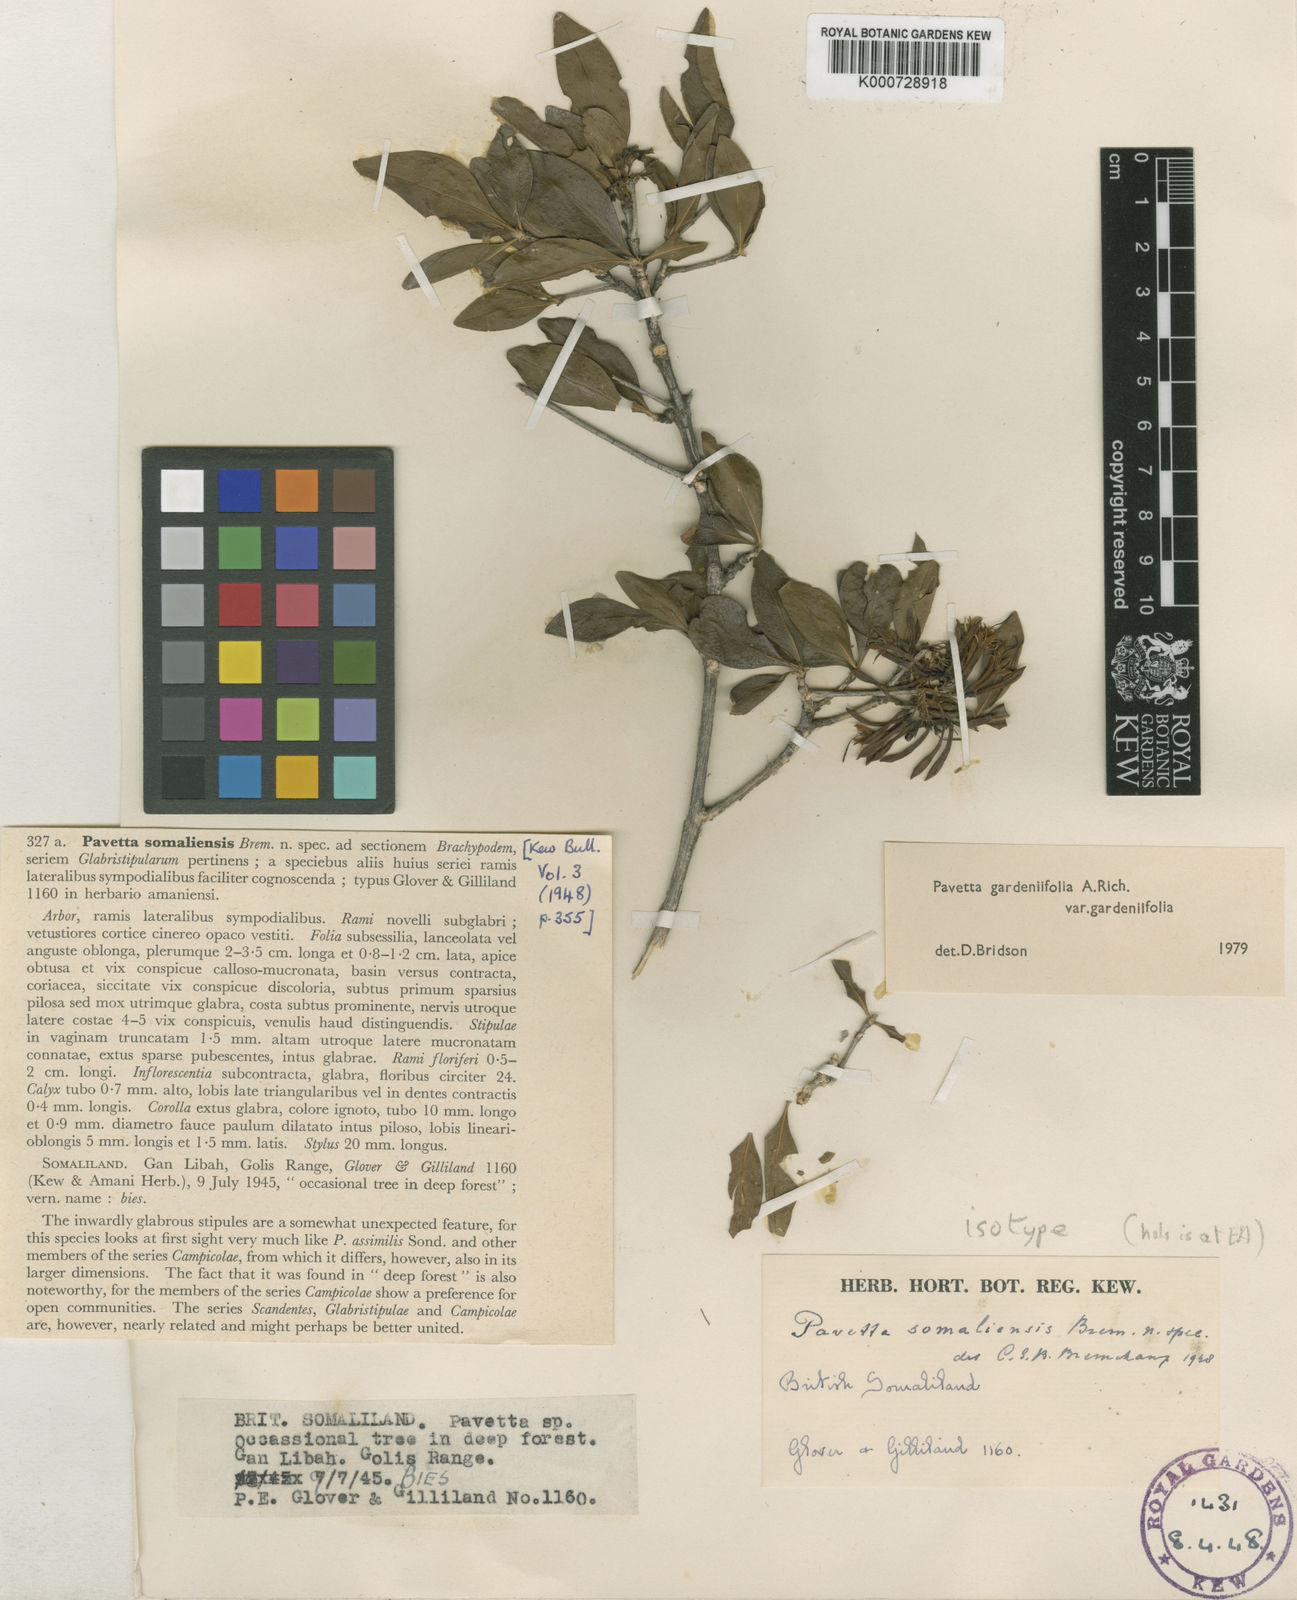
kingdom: Plantae
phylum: Tracheophyta
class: Magnoliopsida
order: Gentianales
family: Rubiaceae
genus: Pavetta
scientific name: Pavetta gardeniifolia
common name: Common brides-bush
